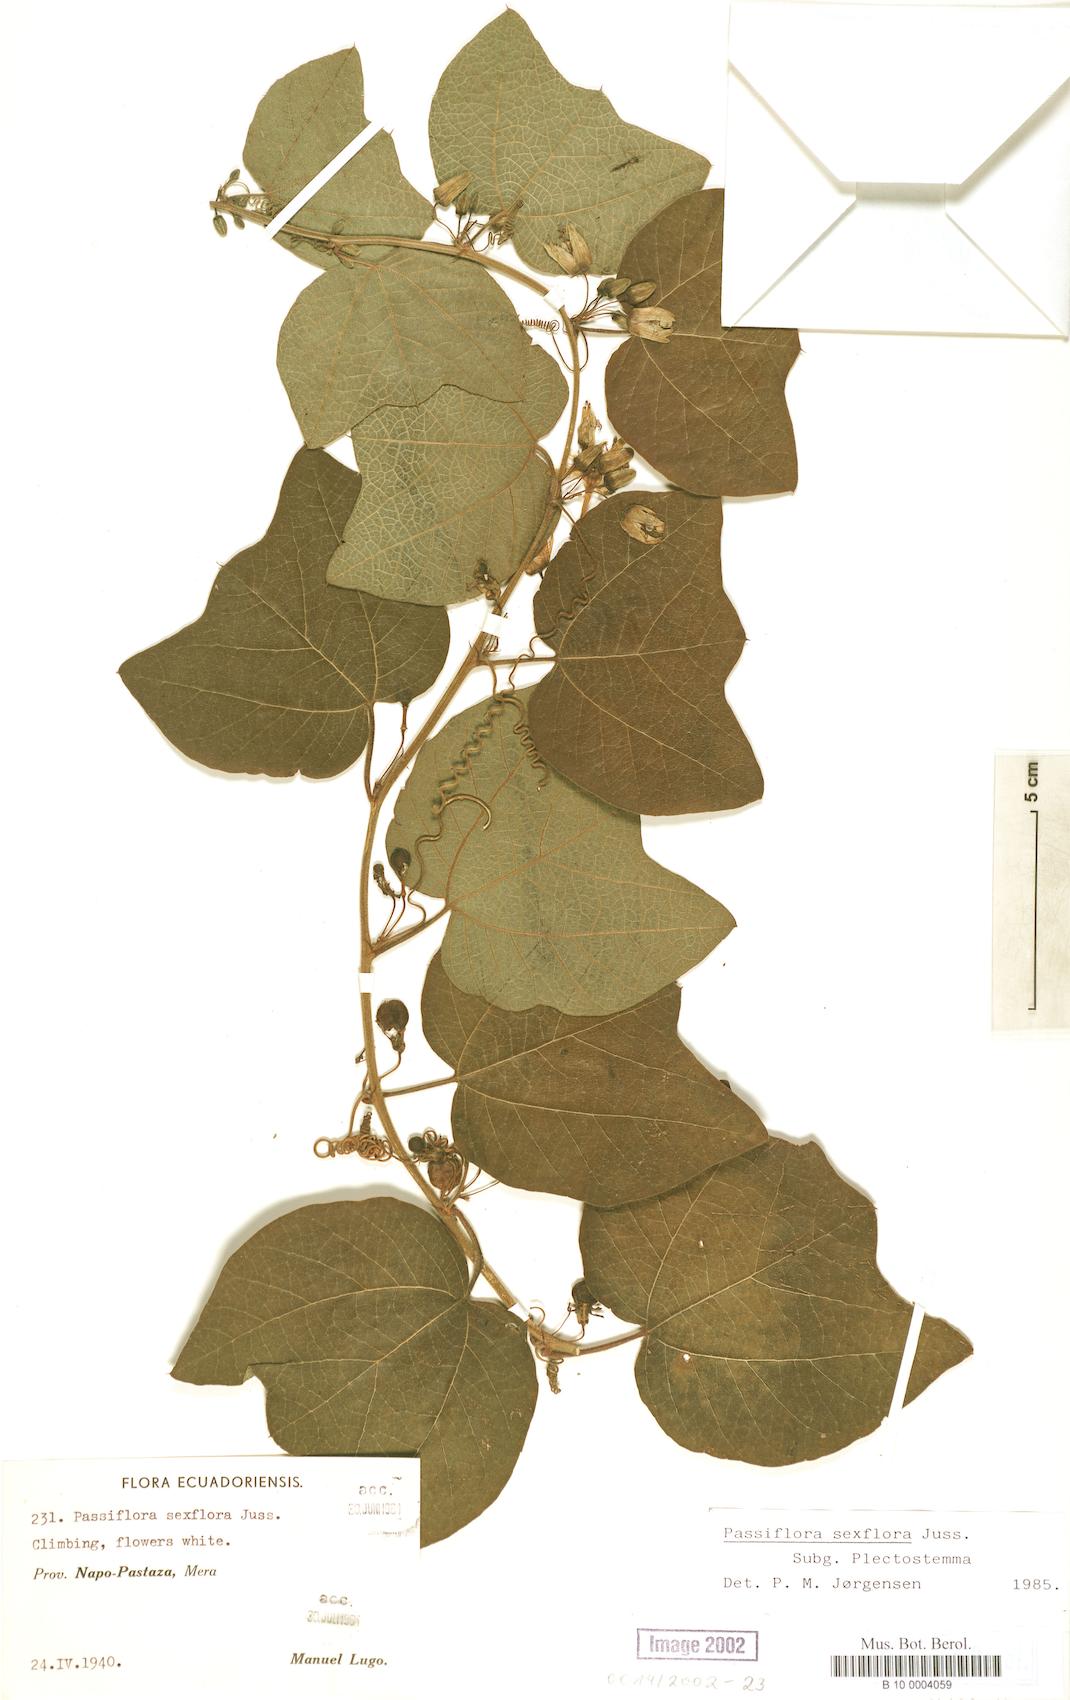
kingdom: Plantae
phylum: Tracheophyta
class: Magnoliopsida
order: Malpighiales
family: Passifloraceae
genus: Passiflora
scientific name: Passiflora sexflora
